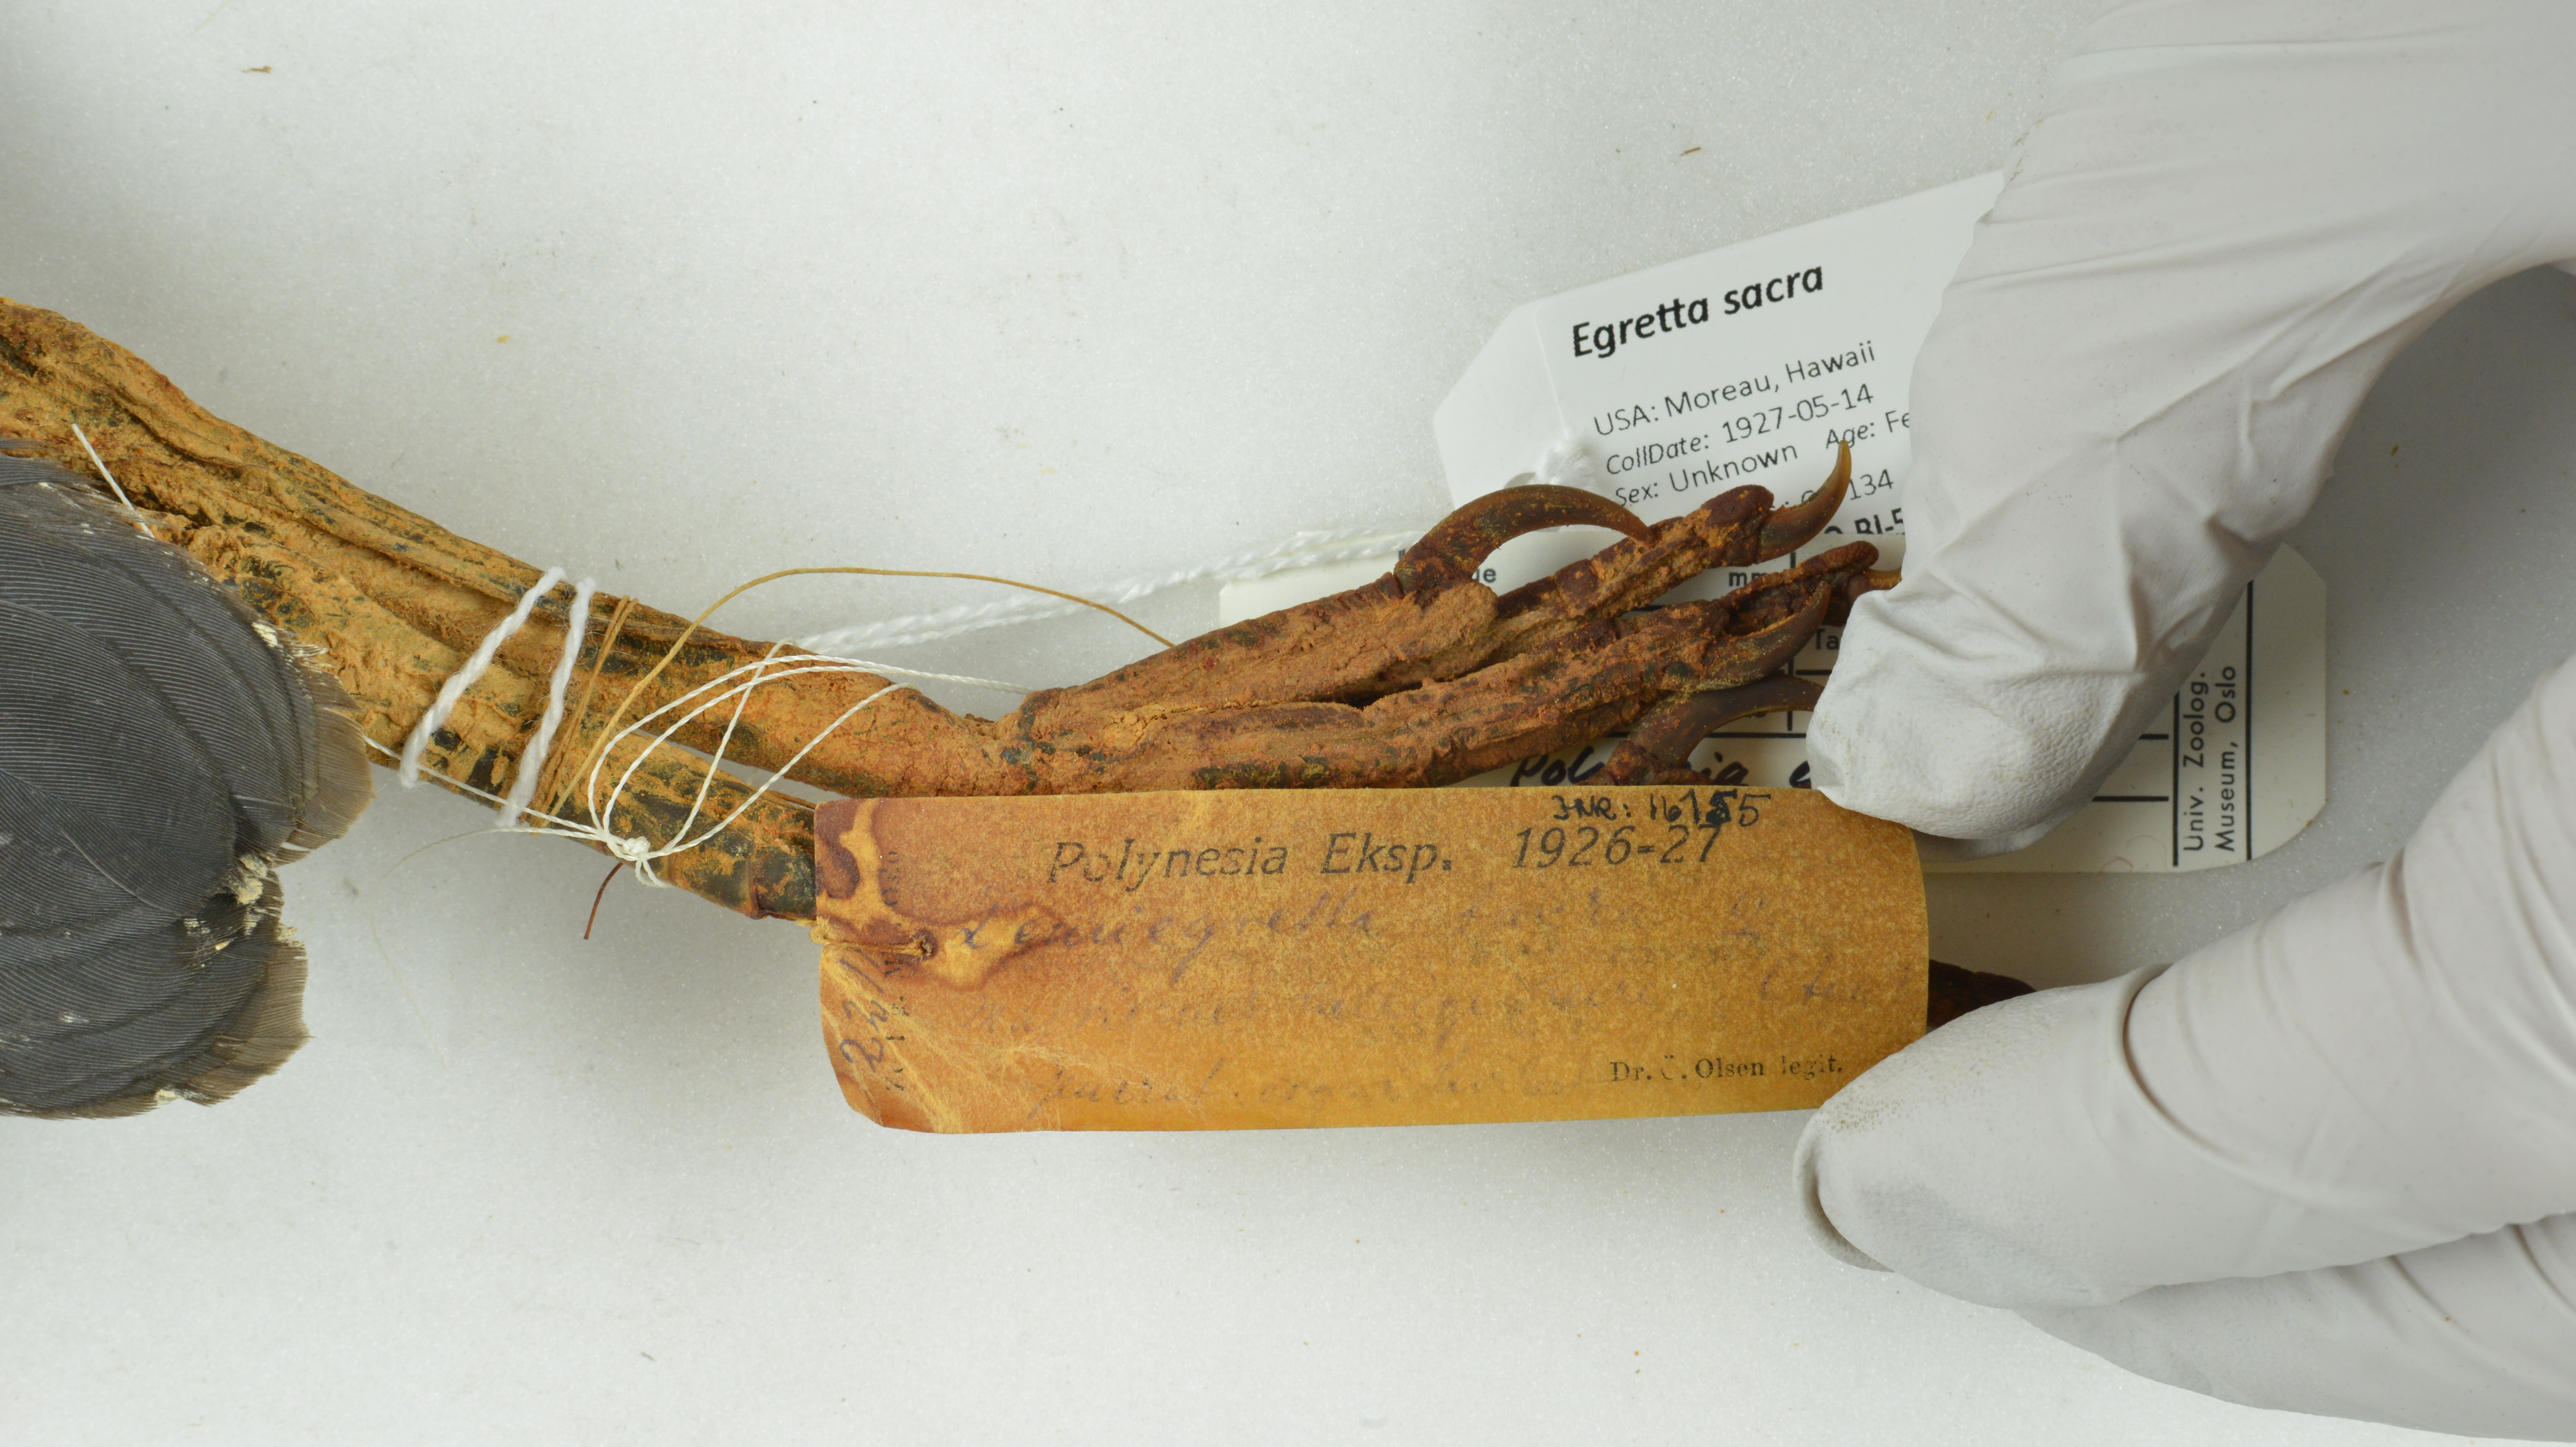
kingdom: Animalia
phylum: Chordata
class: Aves
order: Pelecaniformes
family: Ardeidae
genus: Egretta
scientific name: Egretta sacra
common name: Pacific reef heron
